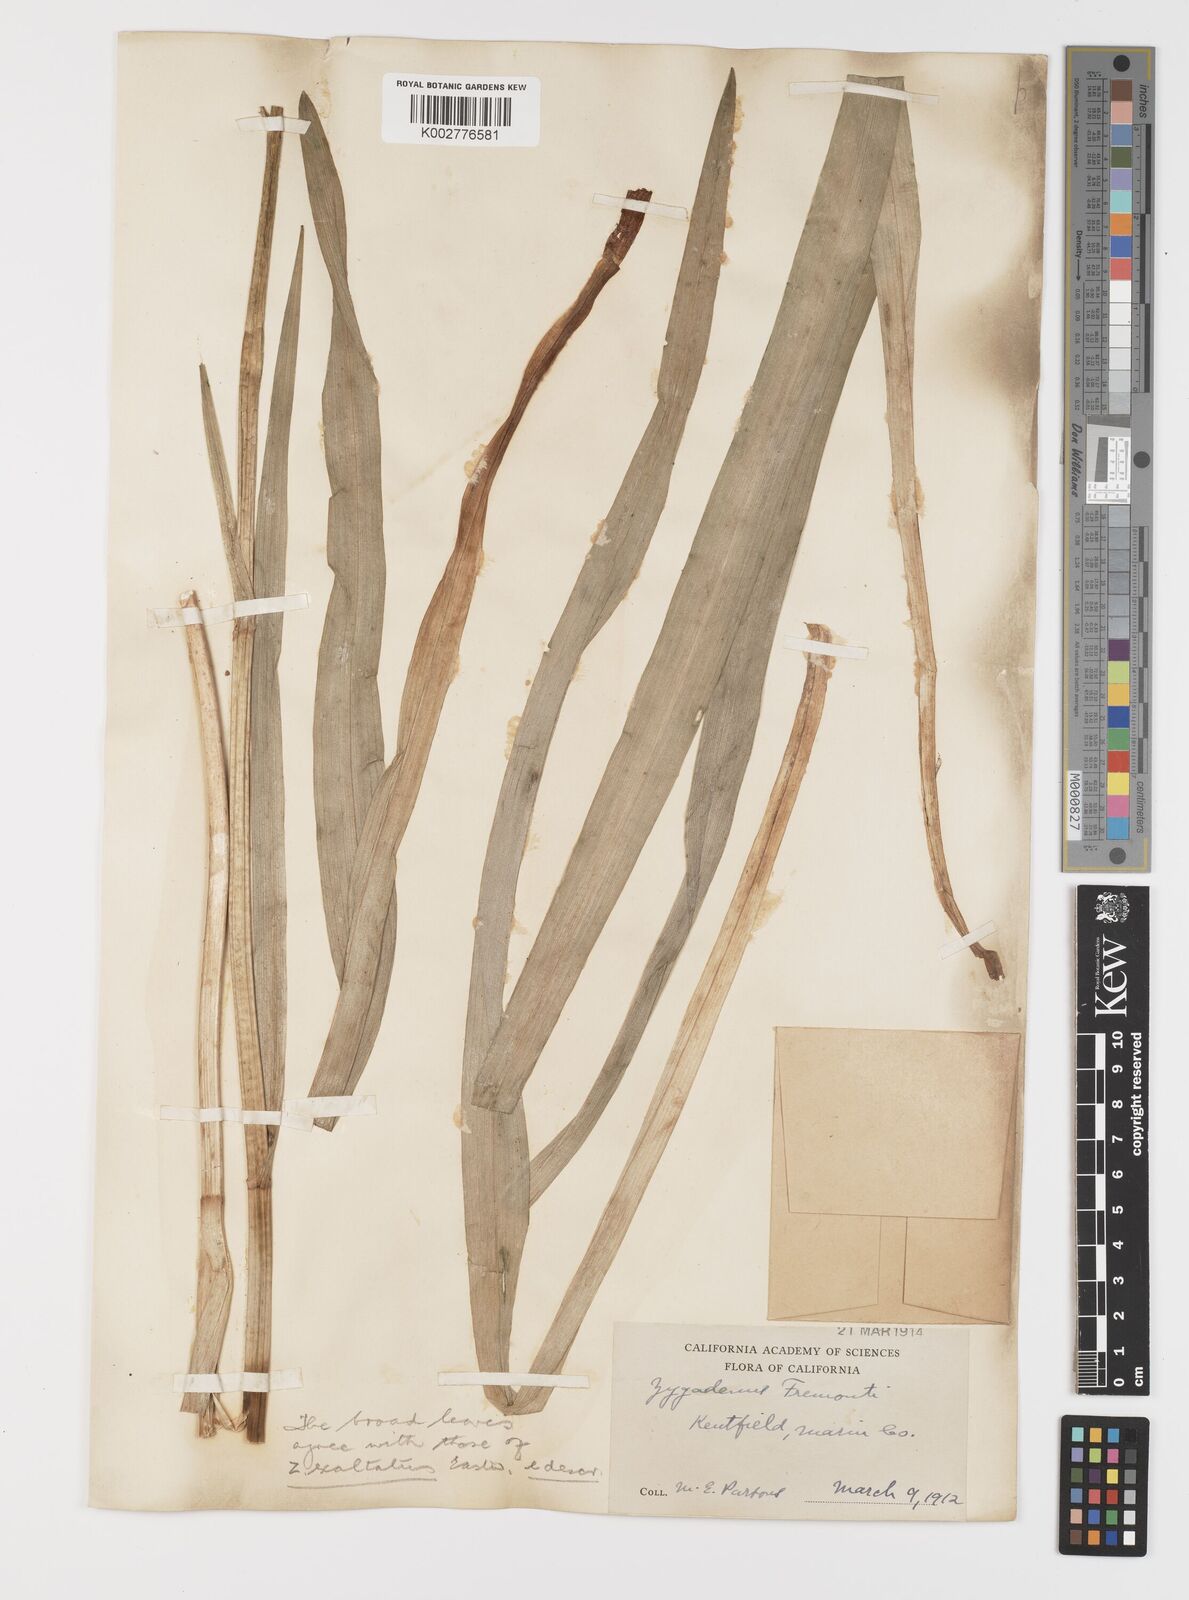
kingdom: Plantae
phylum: Tracheophyta
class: Liliopsida
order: Liliales
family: Melanthiaceae
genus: Toxicoscordion
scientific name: Toxicoscordion fremontii
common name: Fremont's death camas
